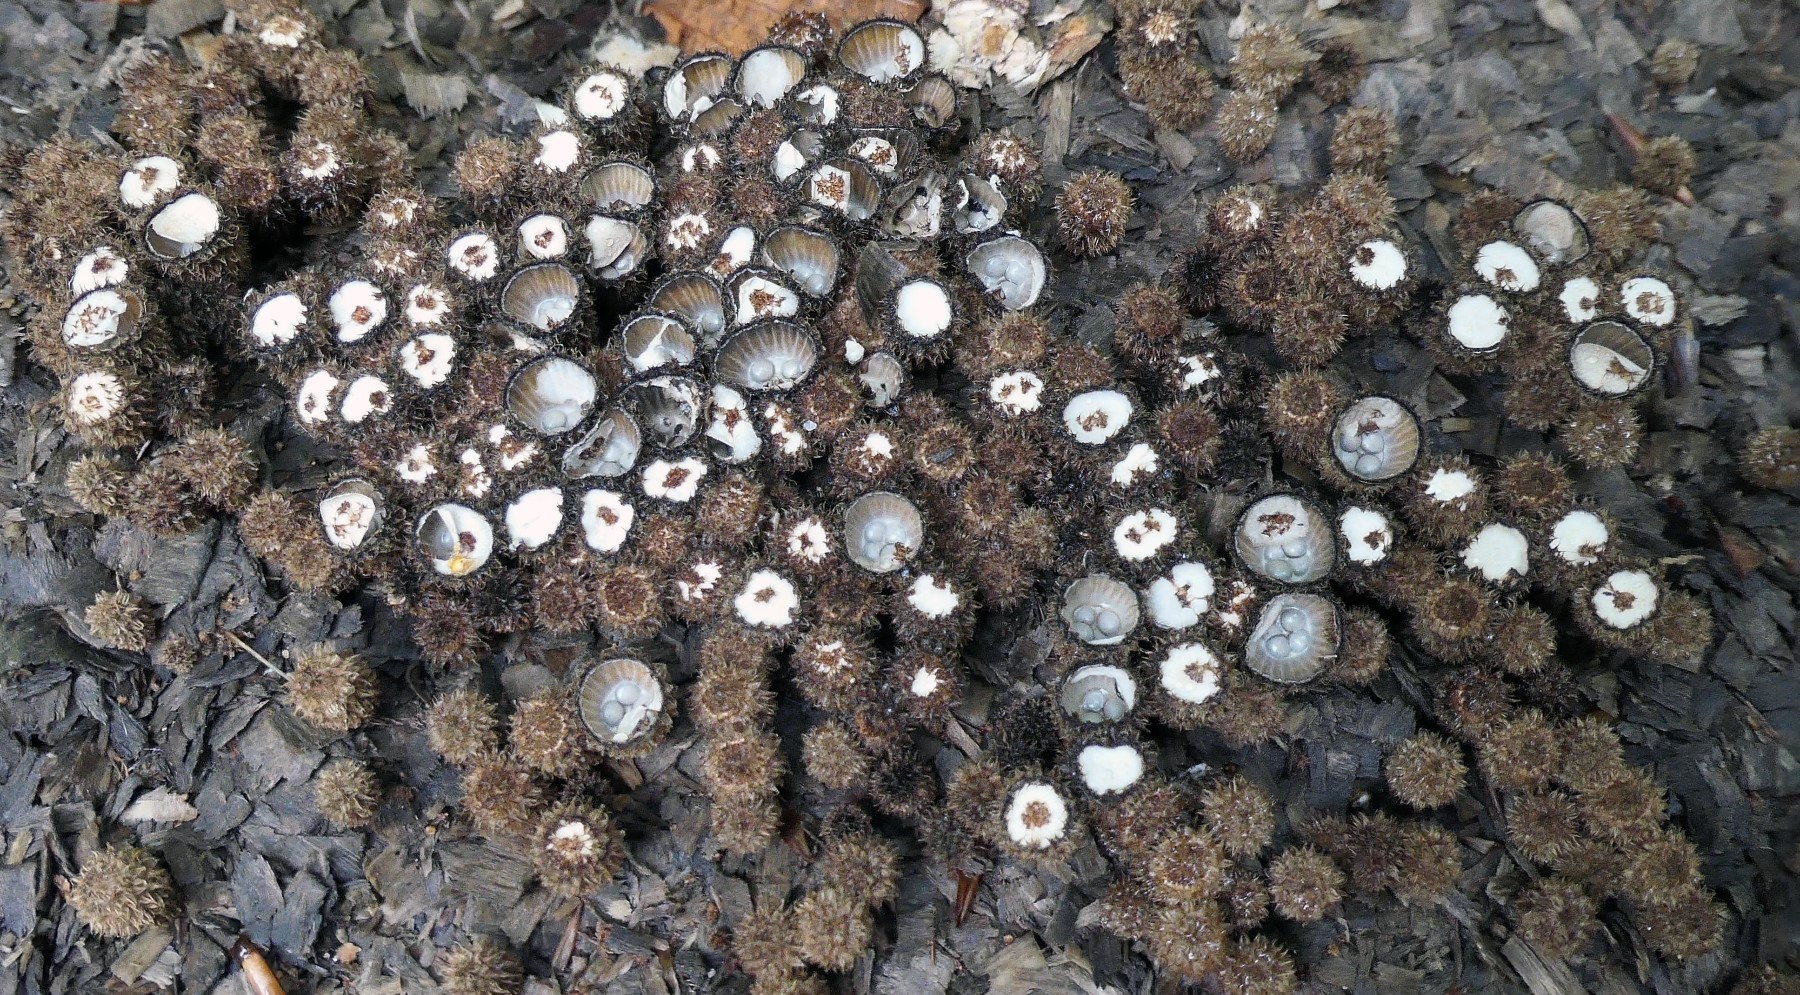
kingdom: Fungi
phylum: Basidiomycota
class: Agaricomycetes
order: Agaricales
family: Agaricaceae
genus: Cyathus
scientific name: Cyathus striatus
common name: stribet redesvamp
